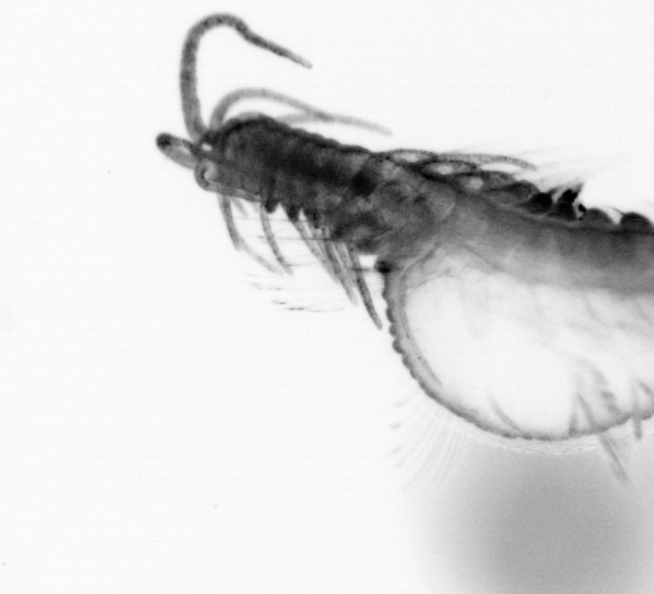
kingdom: Animalia
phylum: Annelida
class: Polychaeta
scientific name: Polychaeta
